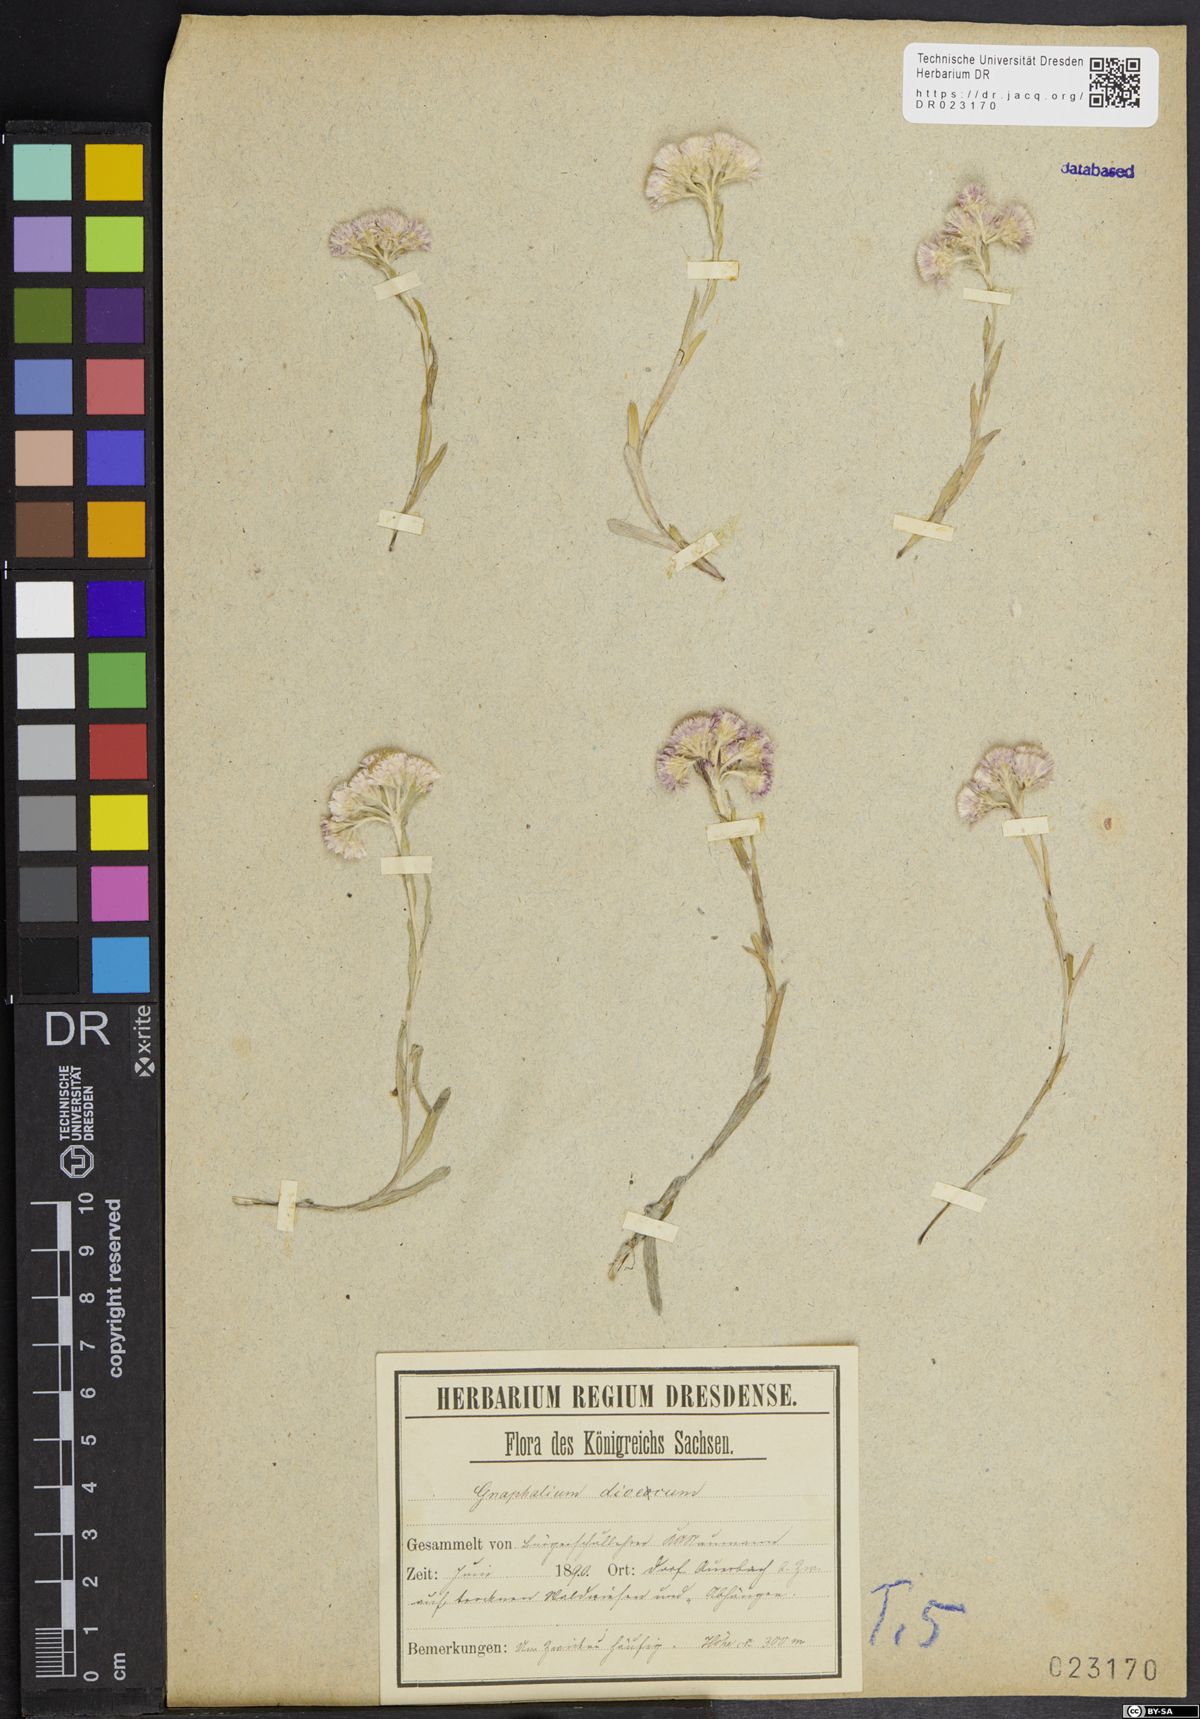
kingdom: Plantae
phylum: Tracheophyta
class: Magnoliopsida
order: Asterales
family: Asteraceae
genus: Antennaria
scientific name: Antennaria dioica
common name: Mountain everlasting
